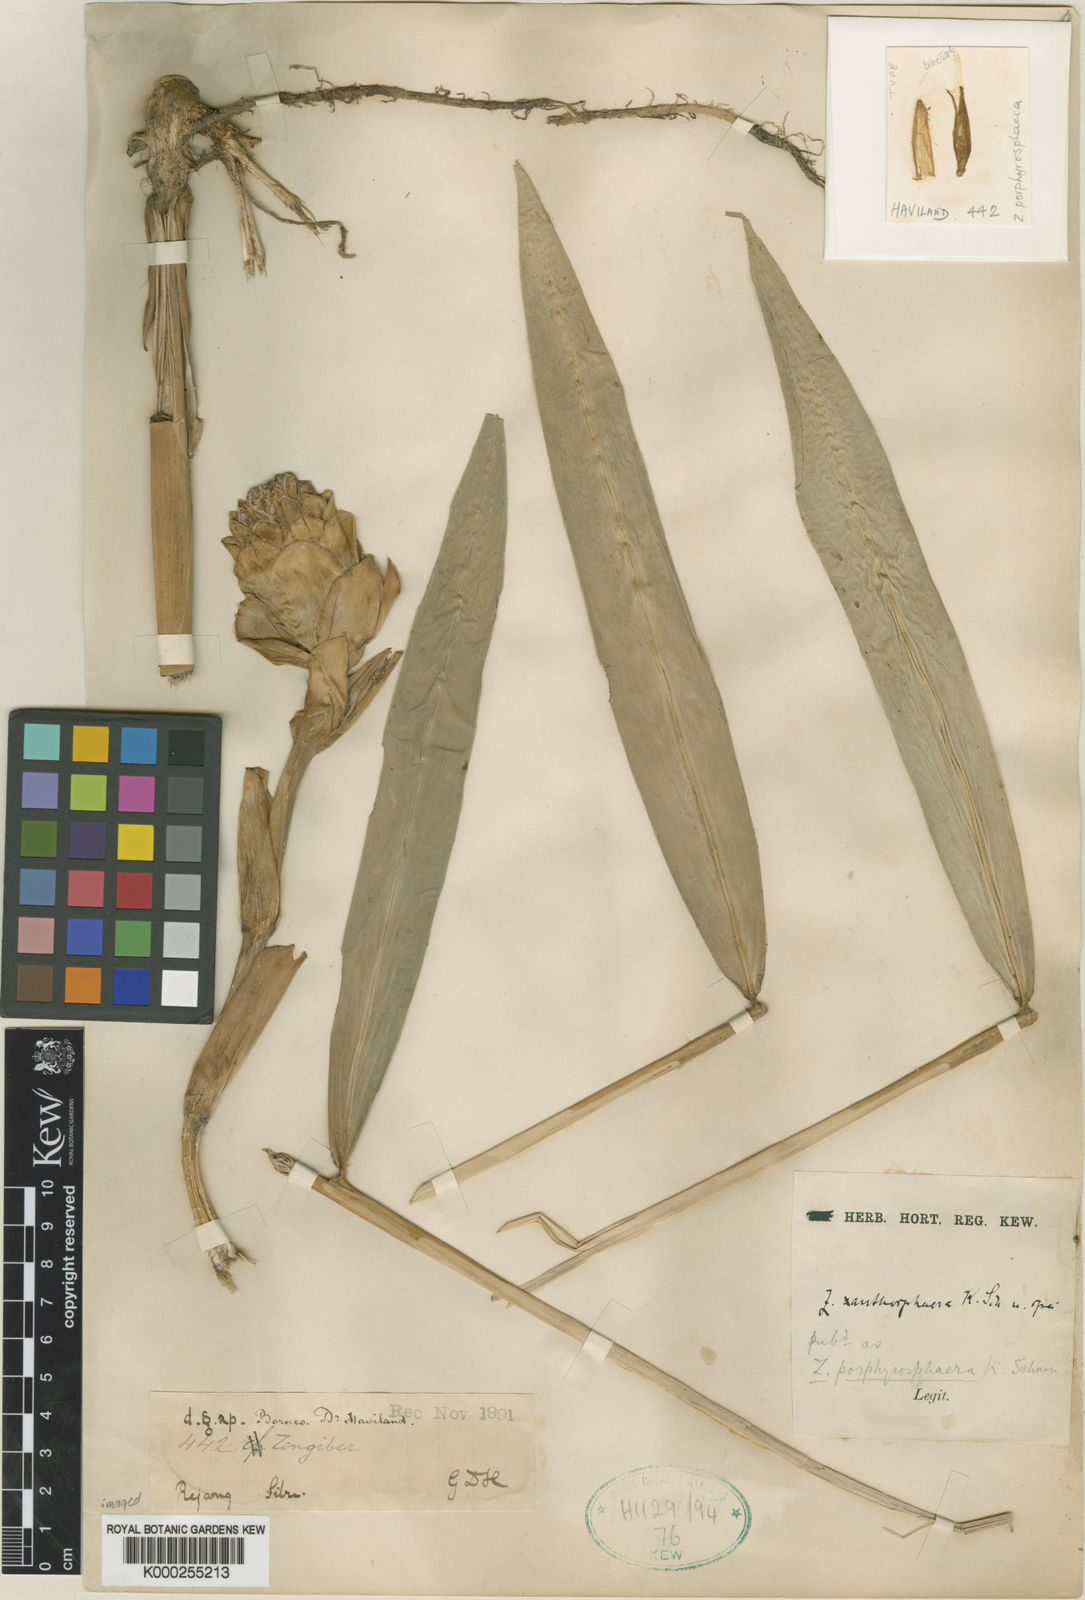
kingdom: Plantae
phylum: Tracheophyta
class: Liliopsida
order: Zingiberales
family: Zingiberaceae
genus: Zingiber
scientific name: Zingiber porphyrosphaerum
